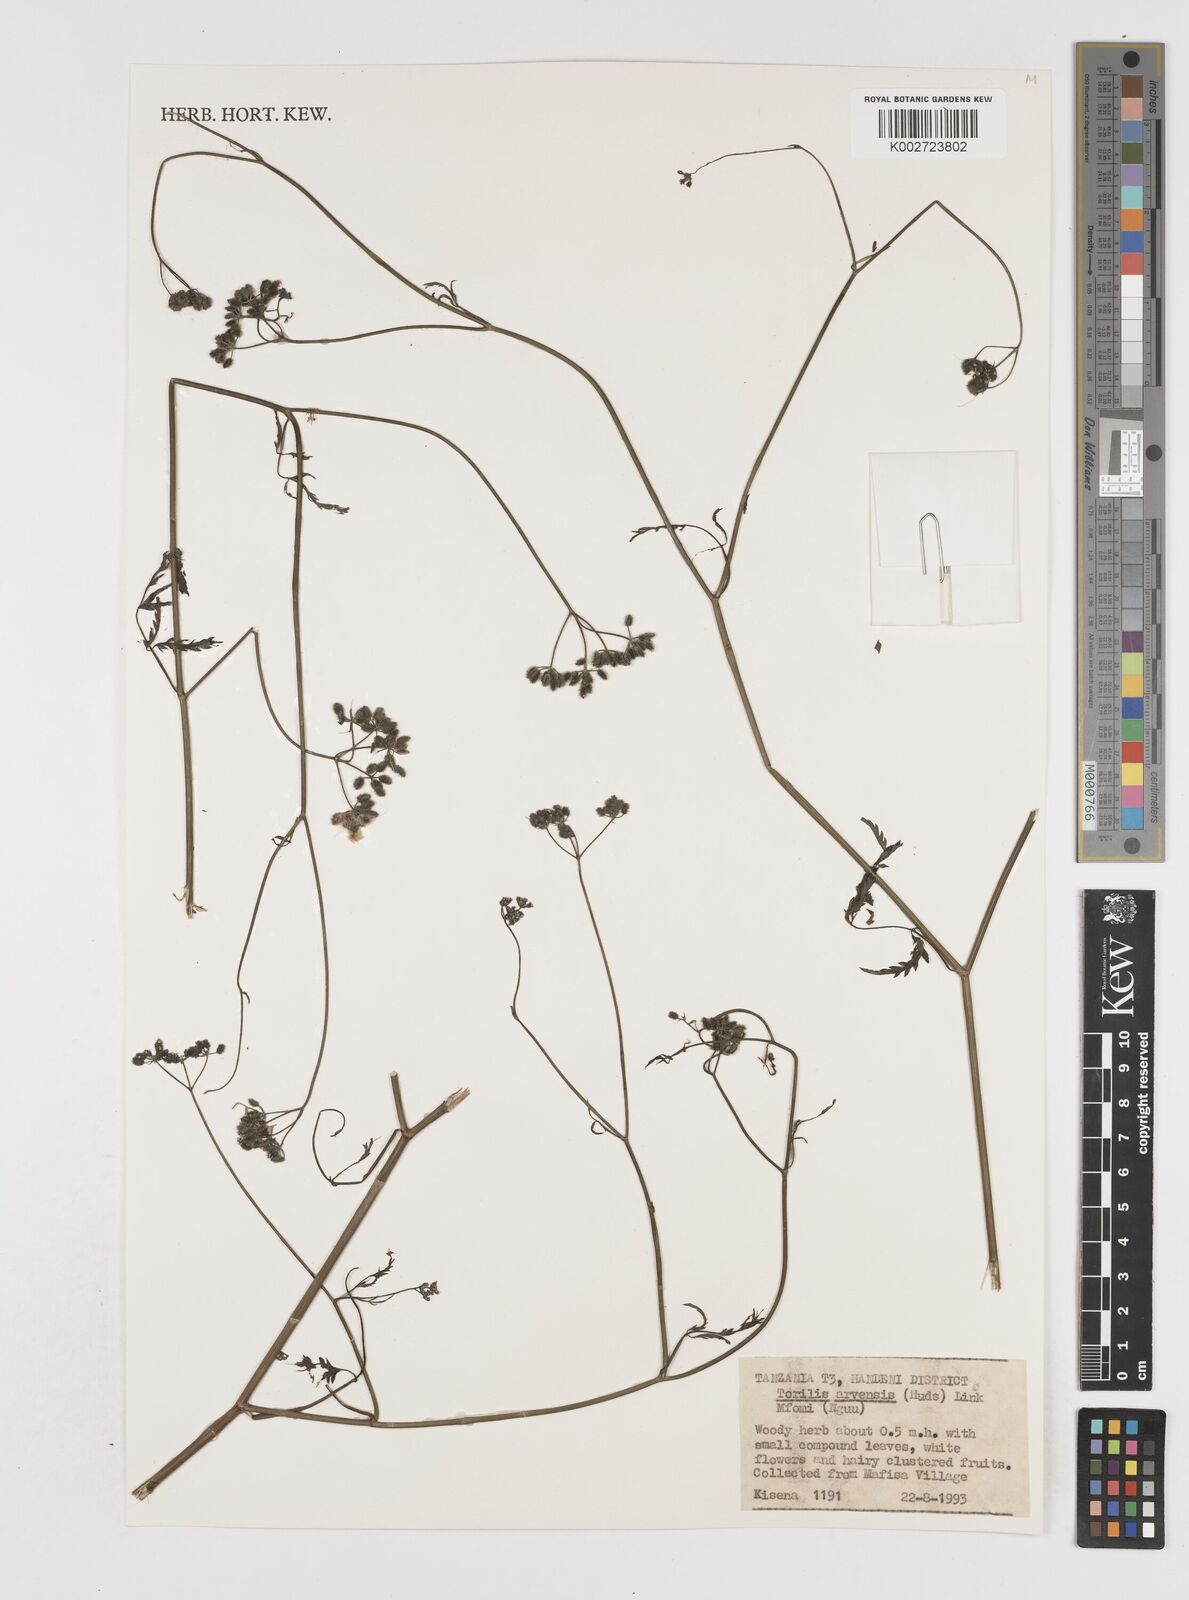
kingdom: Plantae
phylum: Tracheophyta
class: Magnoliopsida
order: Apiales
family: Apiaceae
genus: Torilis
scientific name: Torilis arvensis
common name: Spreading hedge-parsley
